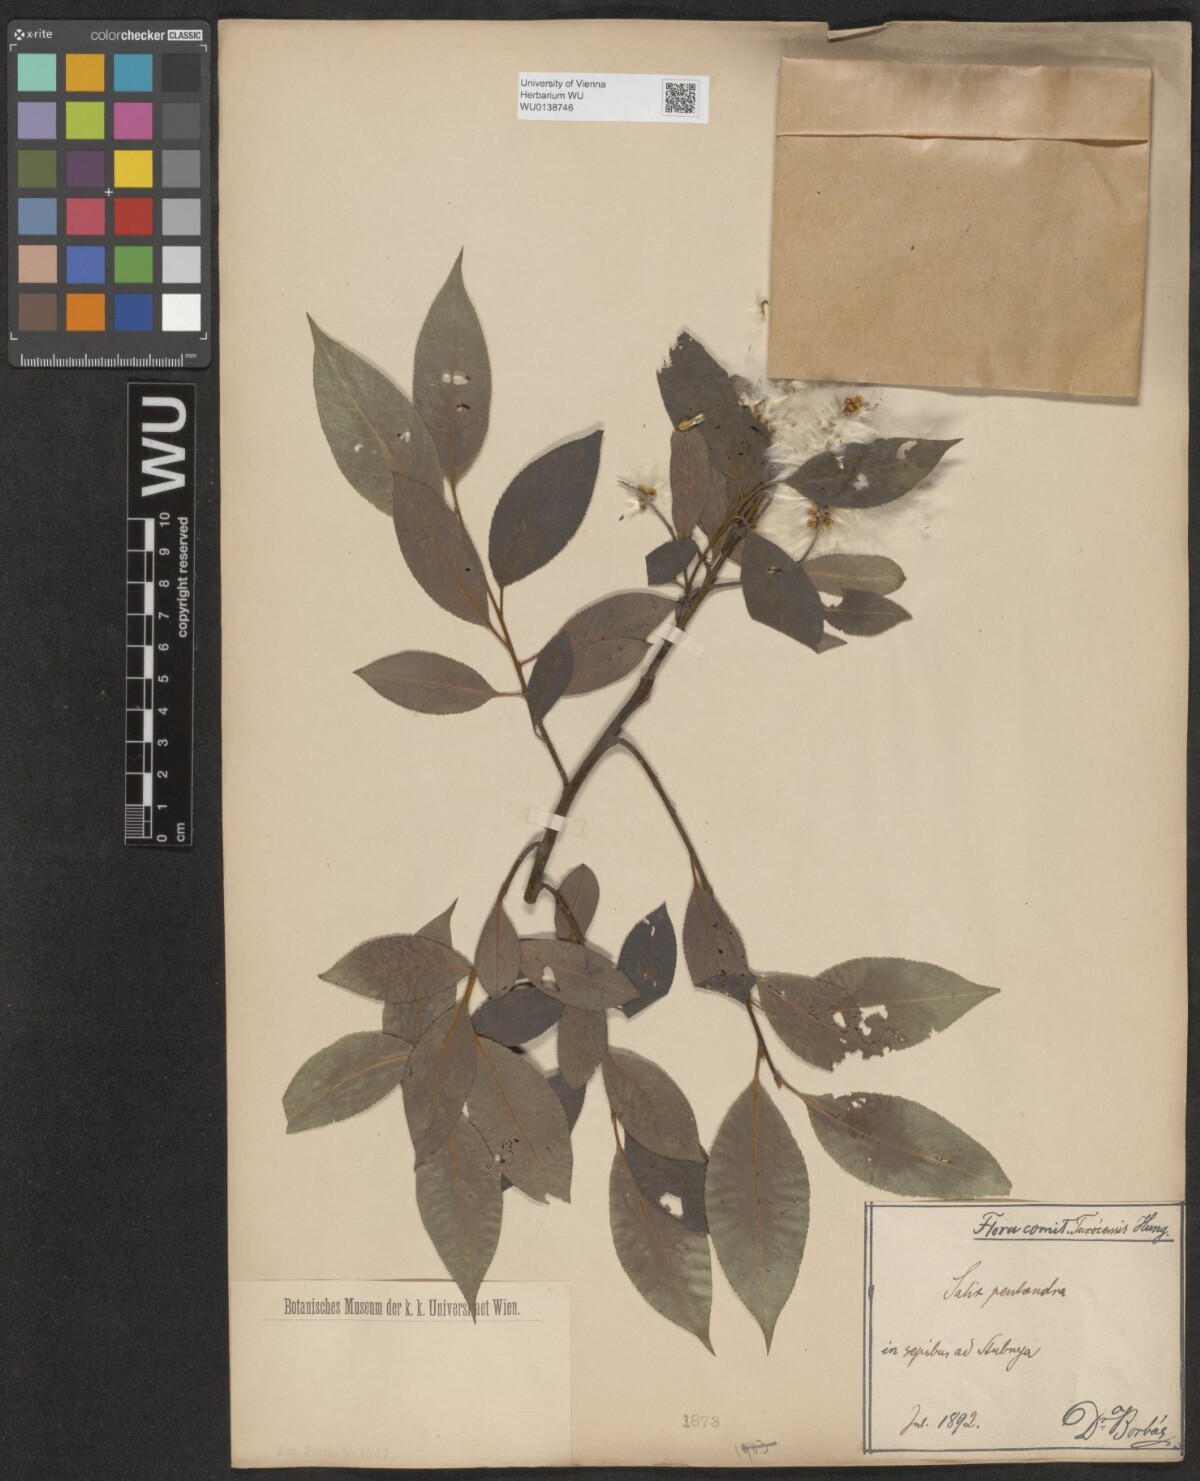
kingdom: Plantae
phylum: Tracheophyta
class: Magnoliopsida
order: Malpighiales
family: Salicaceae
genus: Salix
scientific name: Salix pentandra
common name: Bay willow
